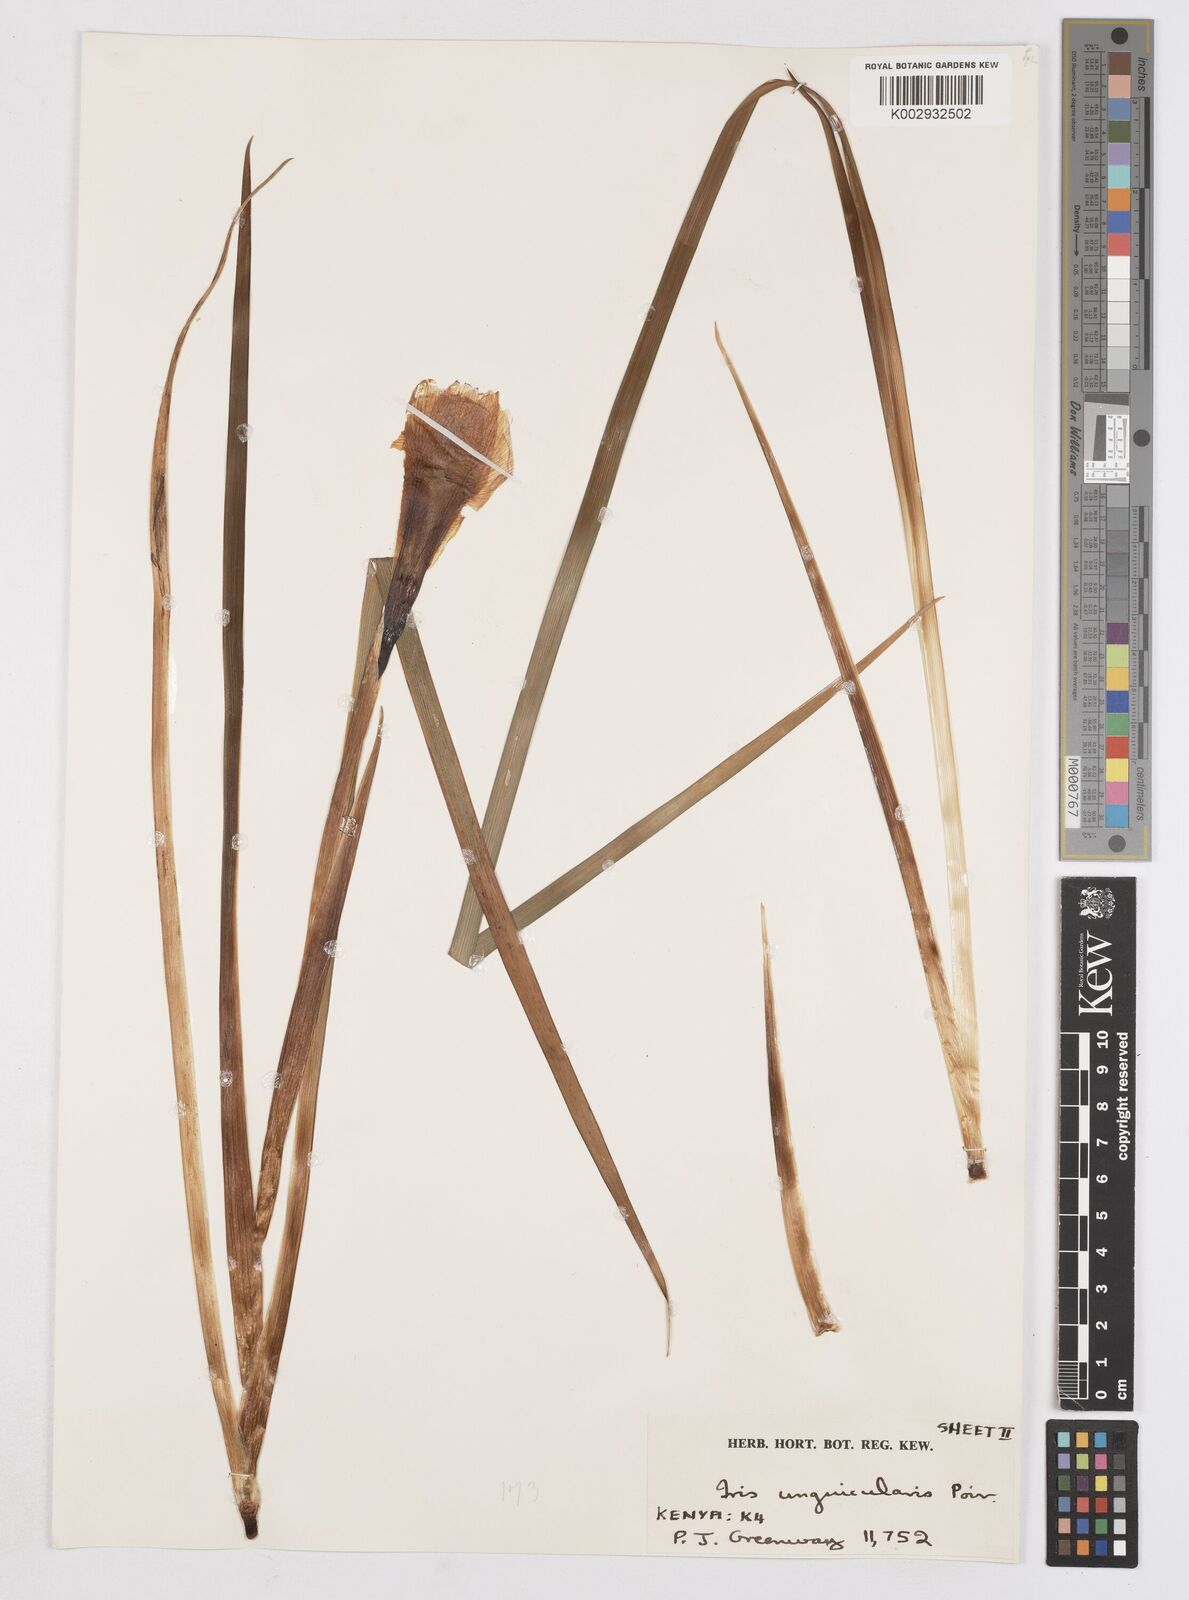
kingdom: Plantae
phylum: Tracheophyta
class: Liliopsida
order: Asparagales
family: Iridaceae
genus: Iris
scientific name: Iris unguicularis
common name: Algerian iris
